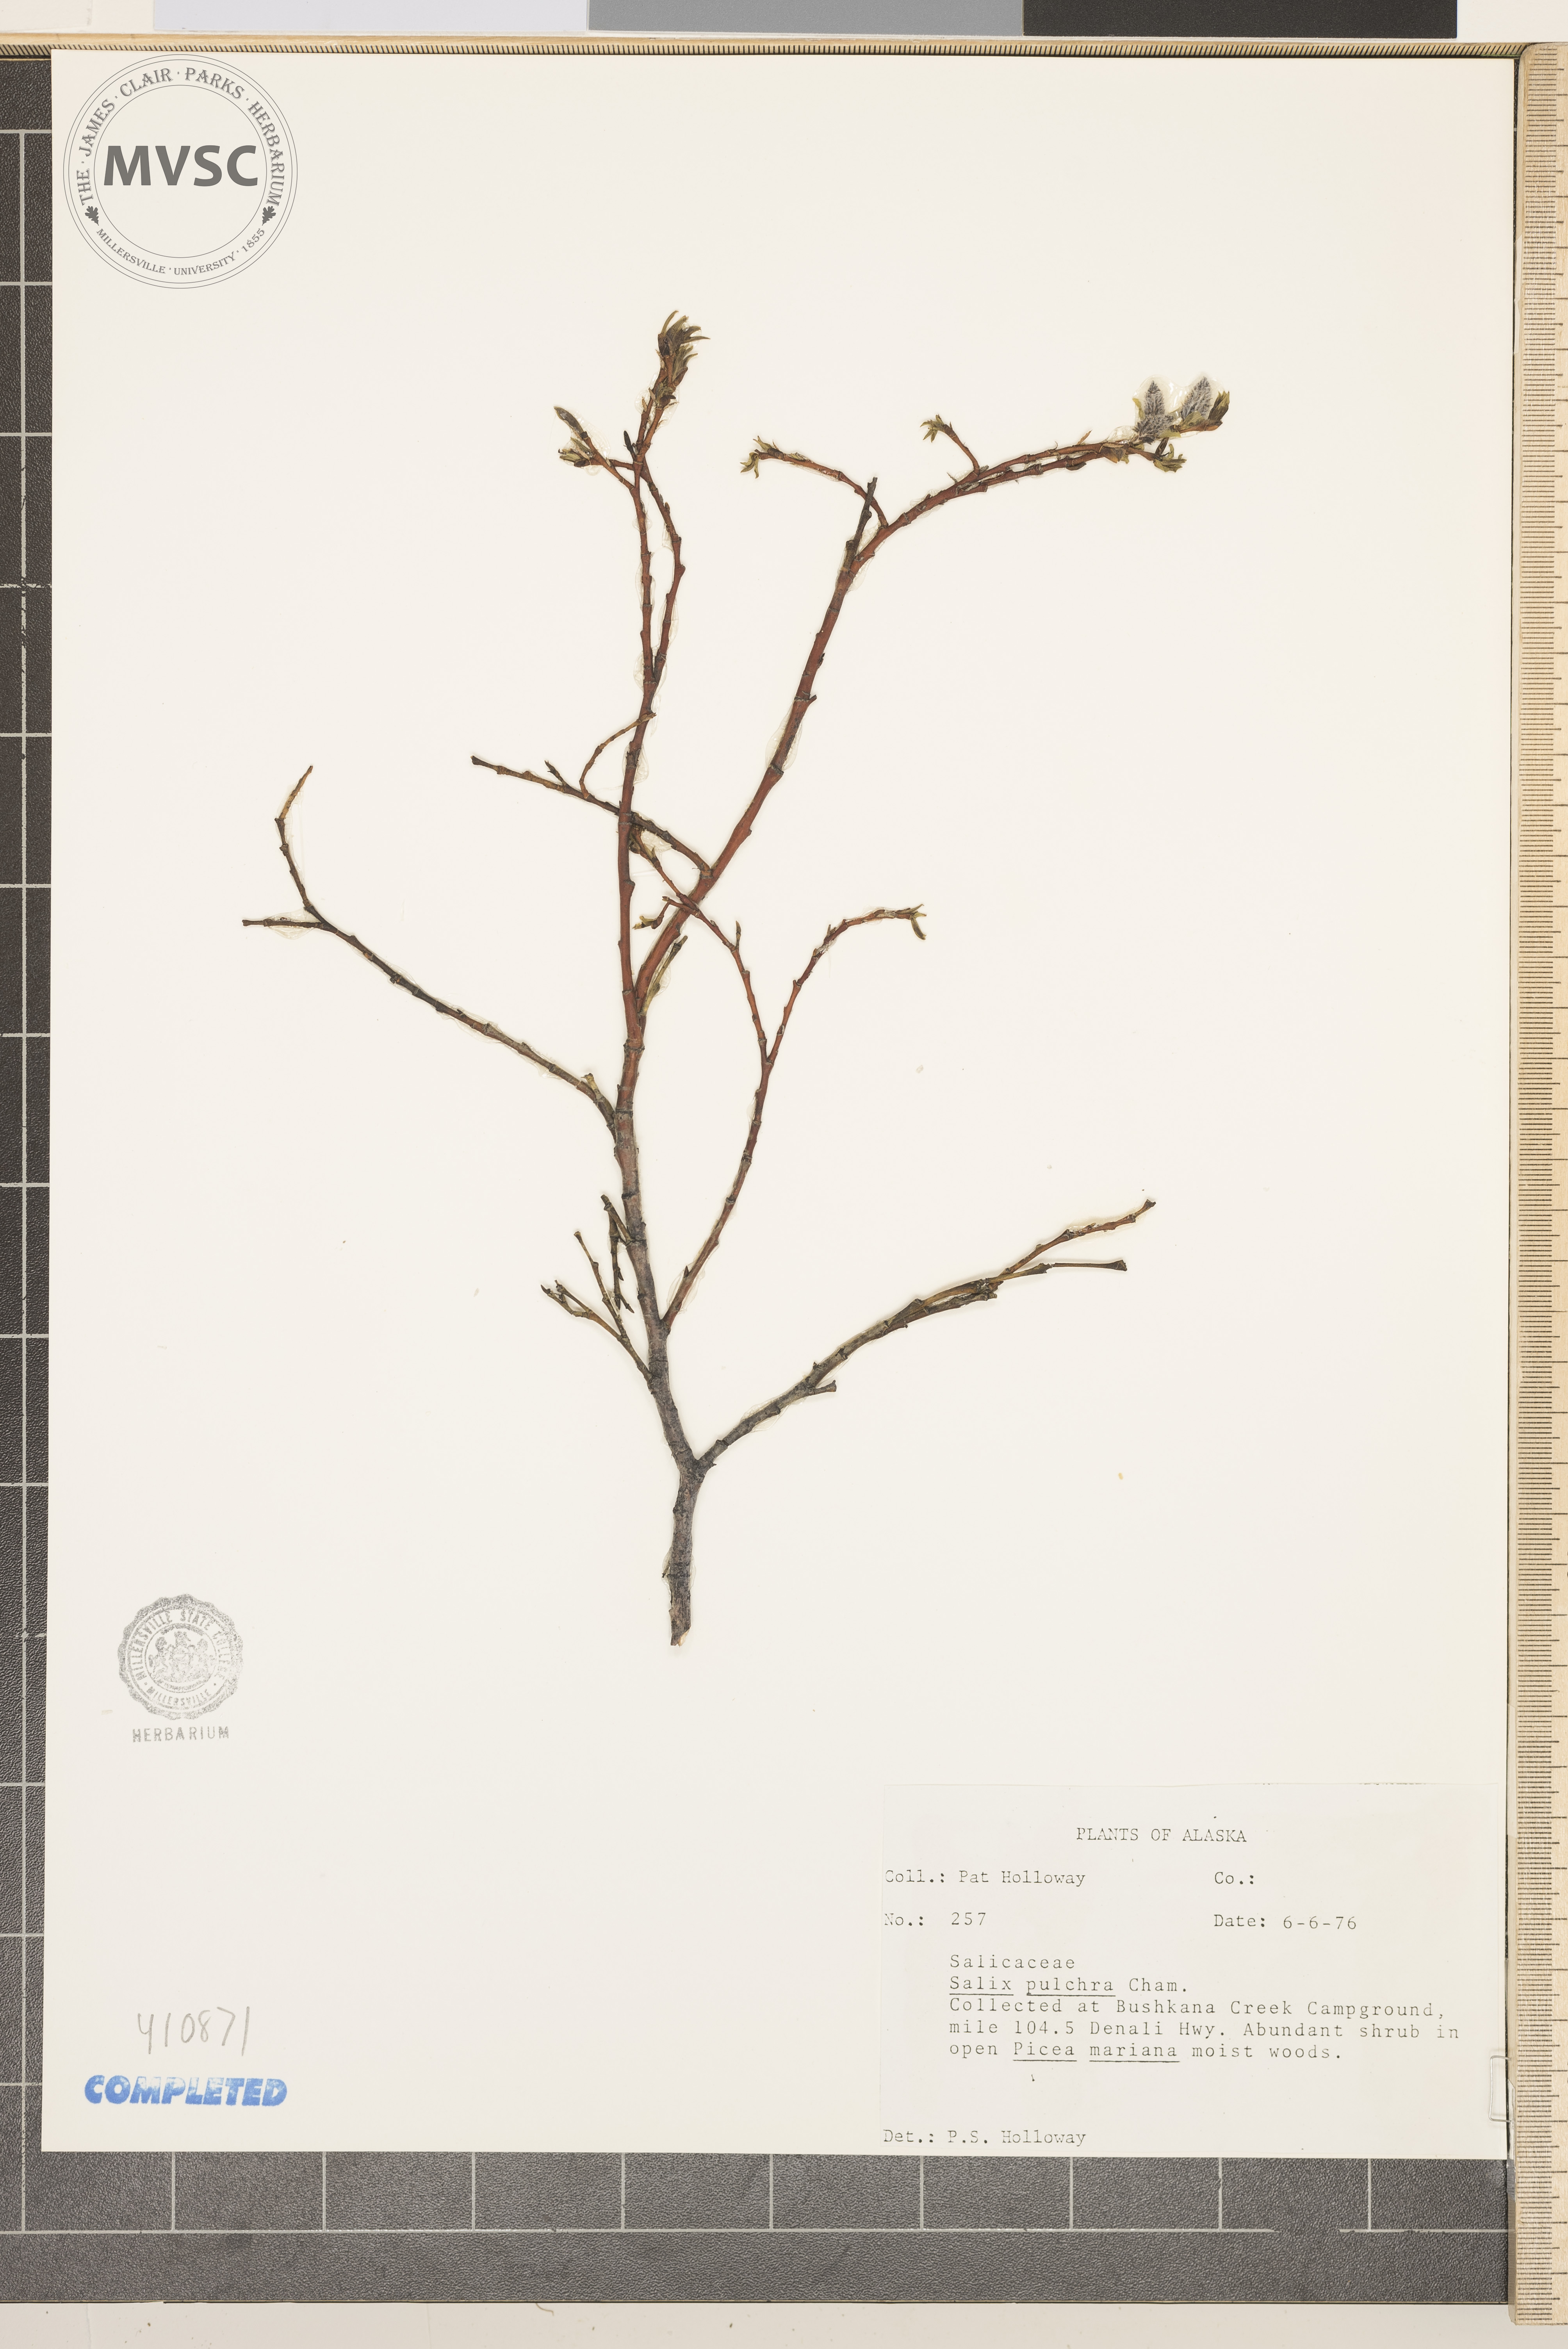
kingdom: Plantae
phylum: Tracheophyta
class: Magnoliopsida
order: Malpighiales
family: Salicaceae
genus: Salix
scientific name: Salix pulchra
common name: Diamond-leaved willow
